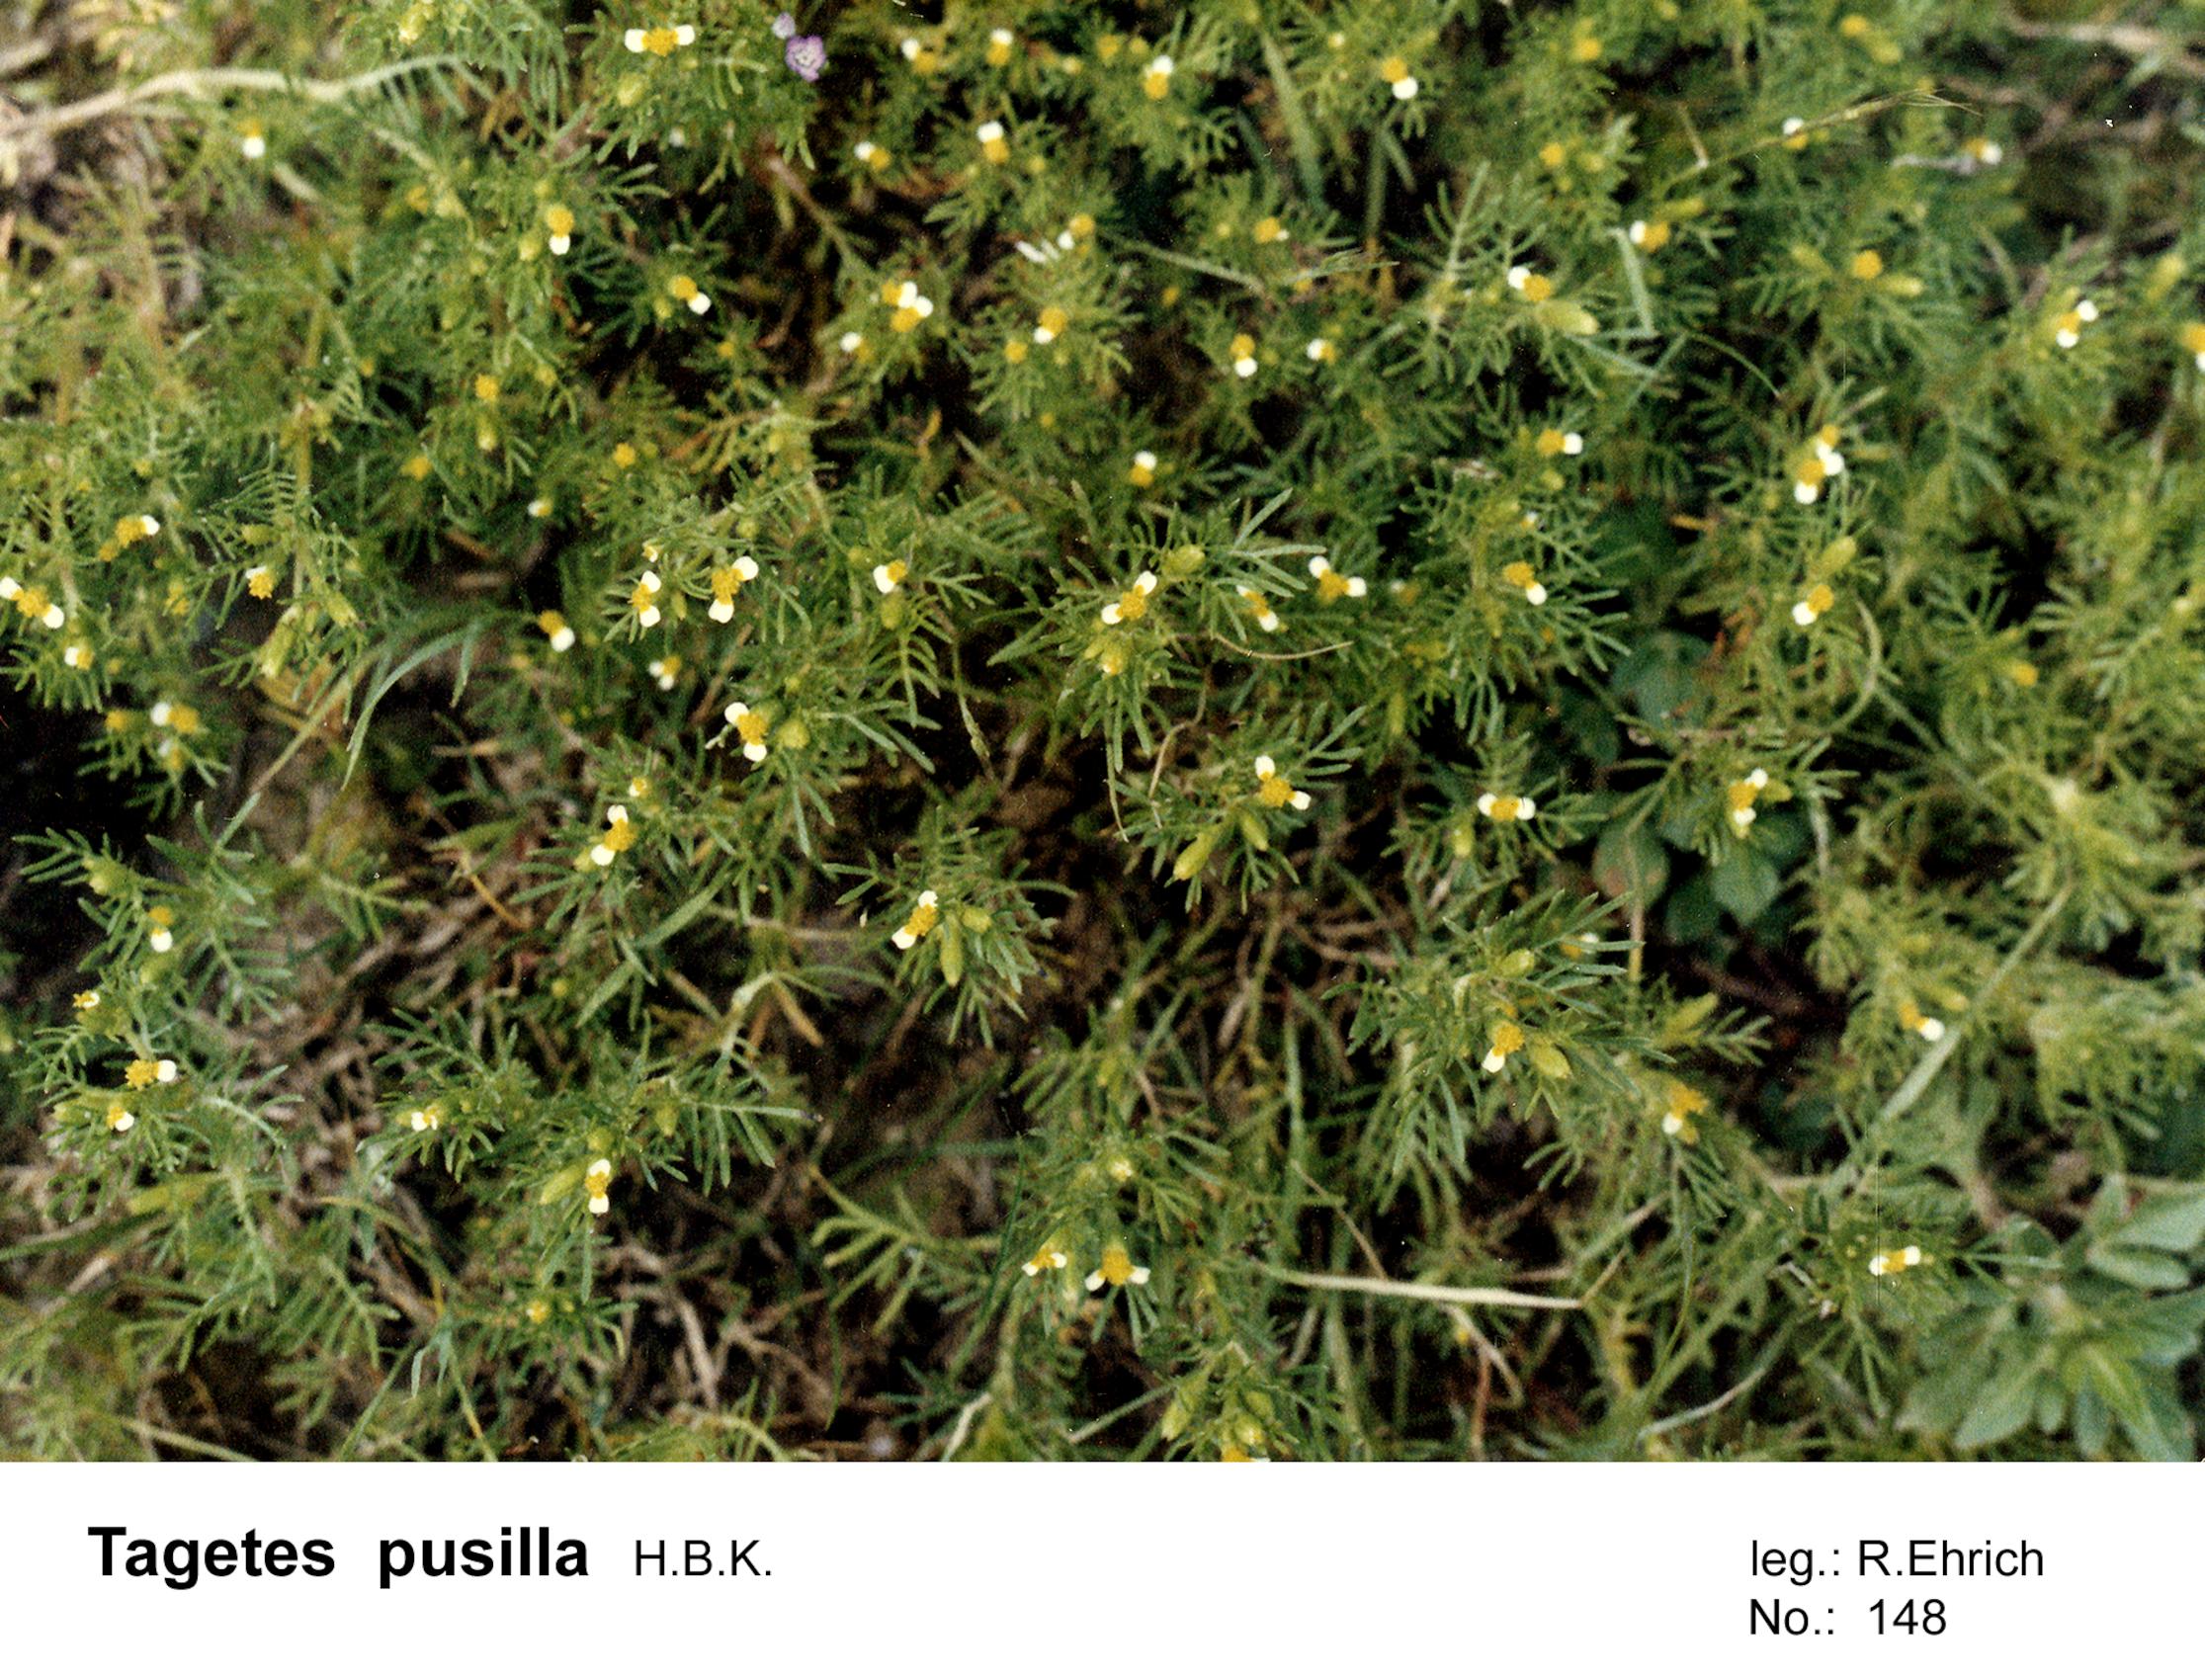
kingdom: Plantae
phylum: Tracheophyta
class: Magnoliopsida
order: Asterales
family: Asteraceae
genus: Tagetes
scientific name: Tagetes filifolia
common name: Lesser marigold
